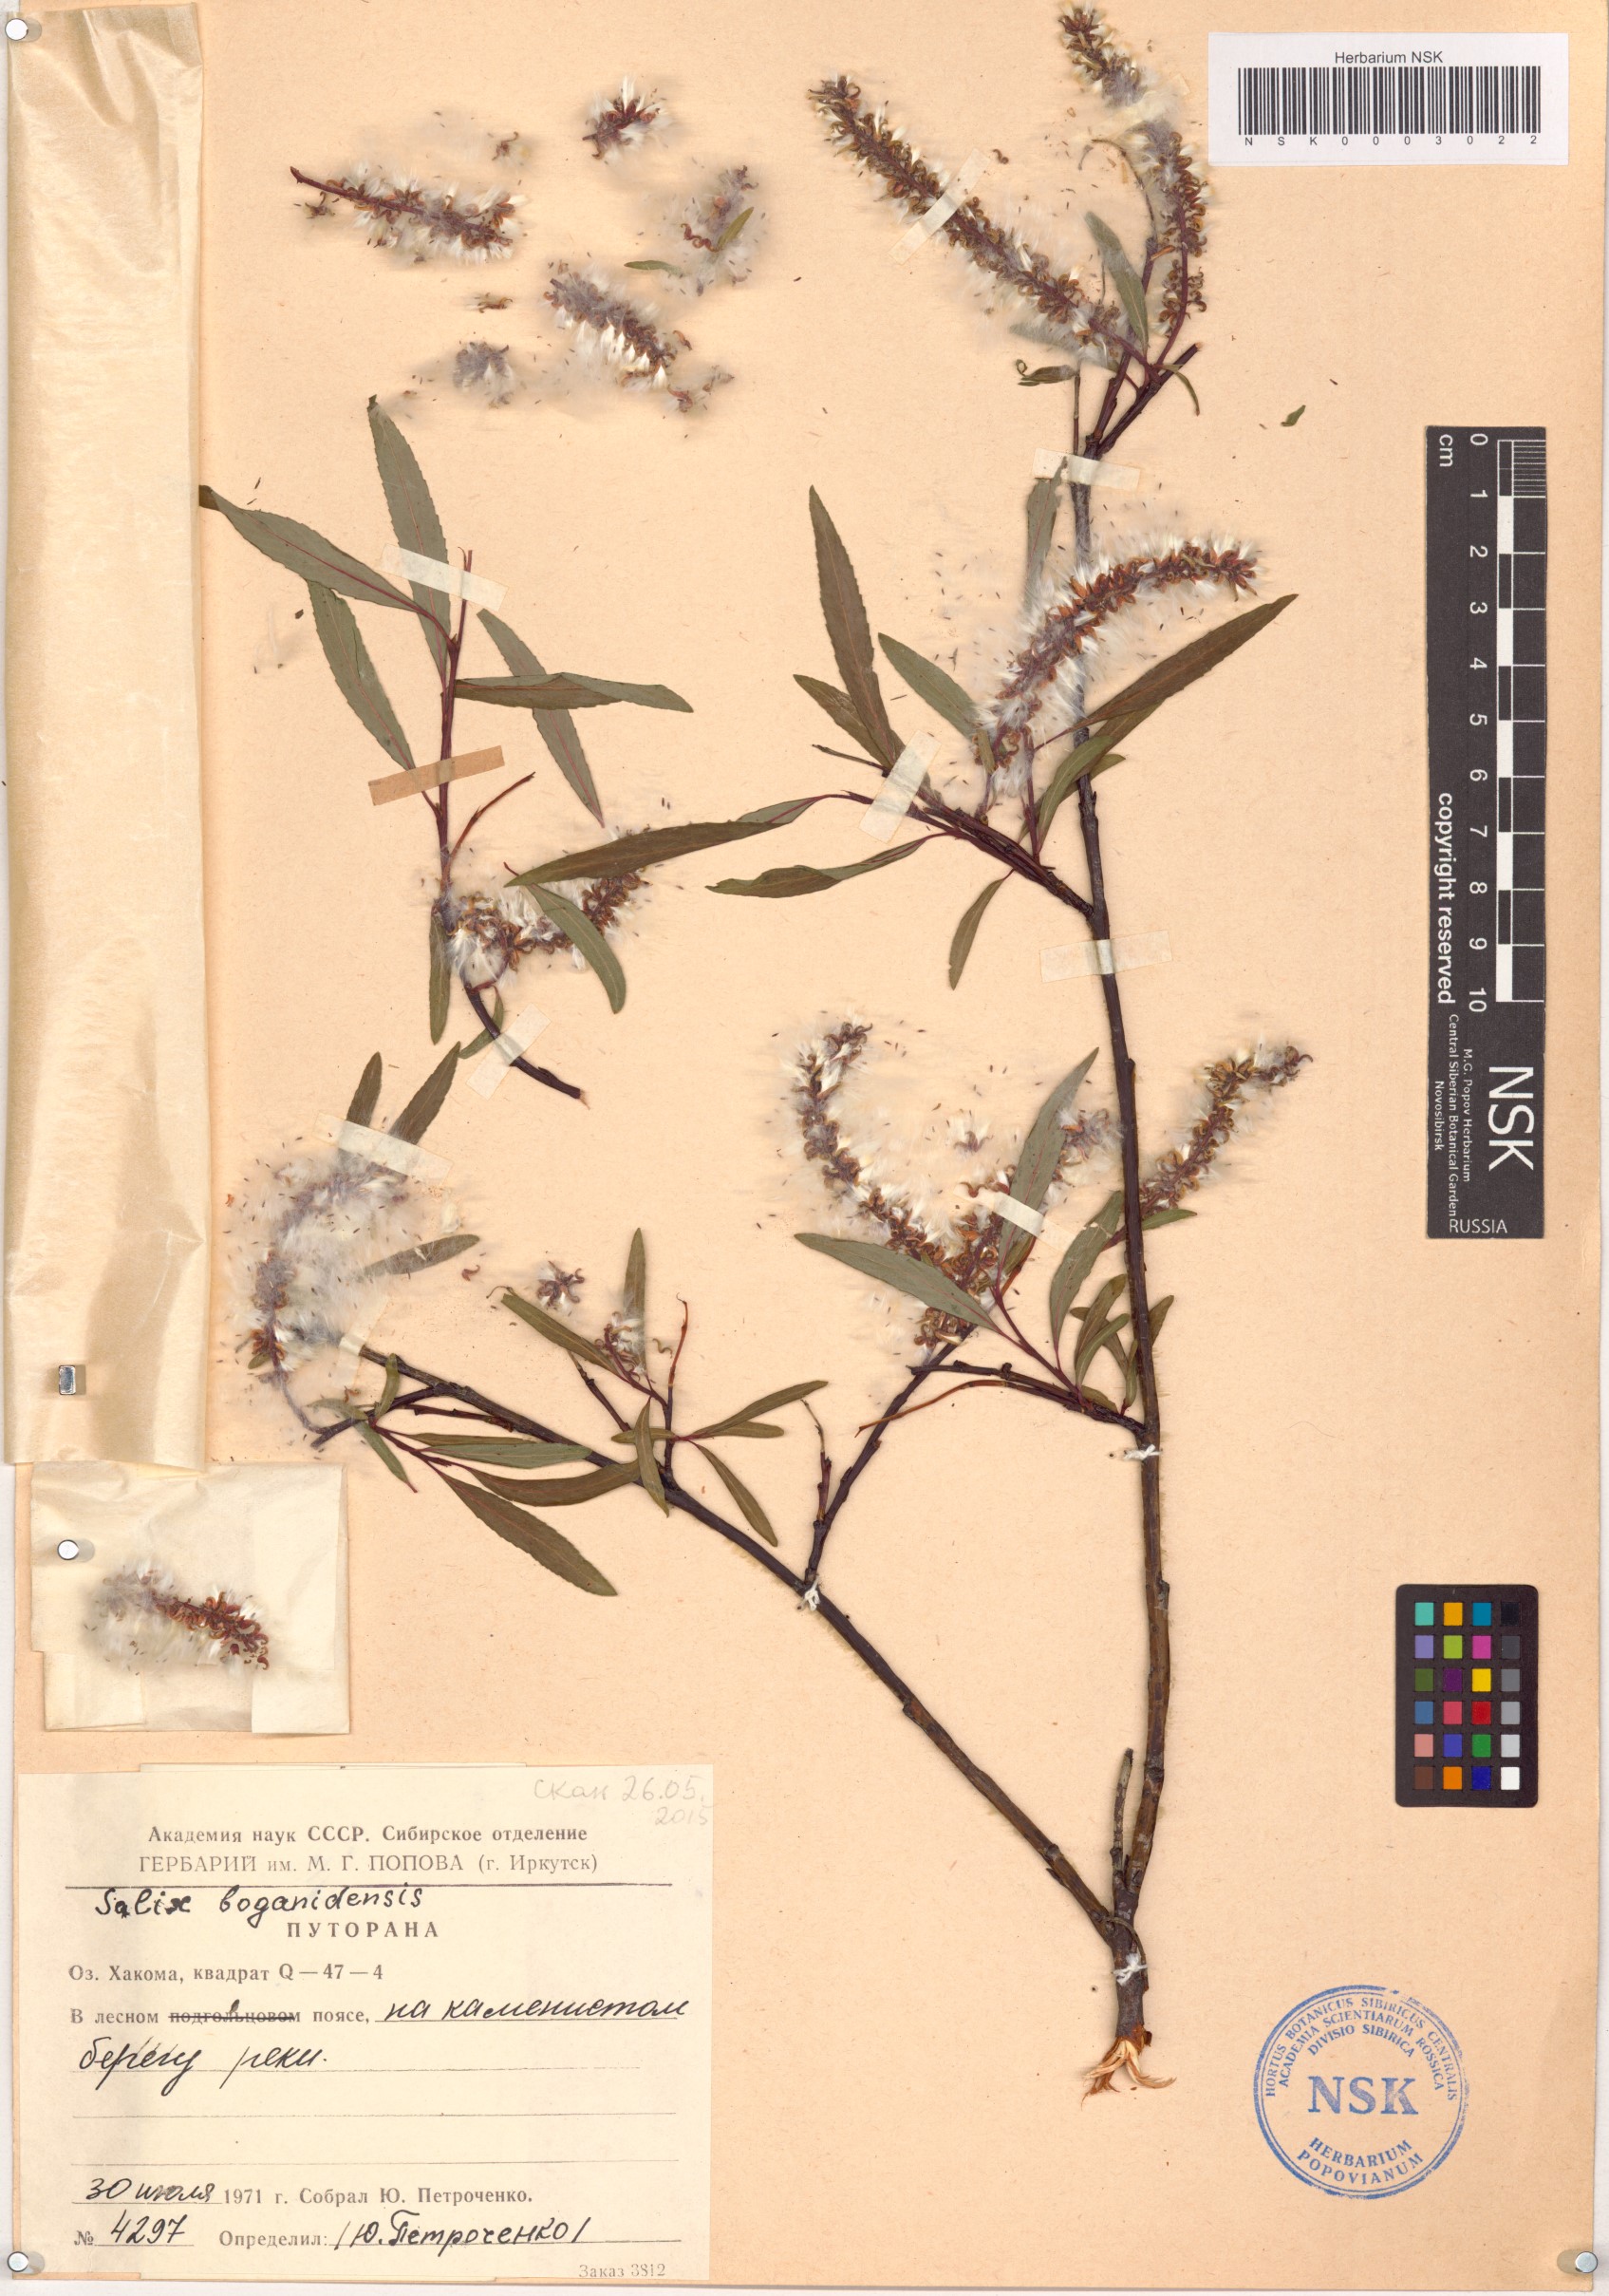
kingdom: Plantae
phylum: Tracheophyta
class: Magnoliopsida
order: Malpighiales
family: Salicaceae
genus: Salix
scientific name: Salix boganidensis
